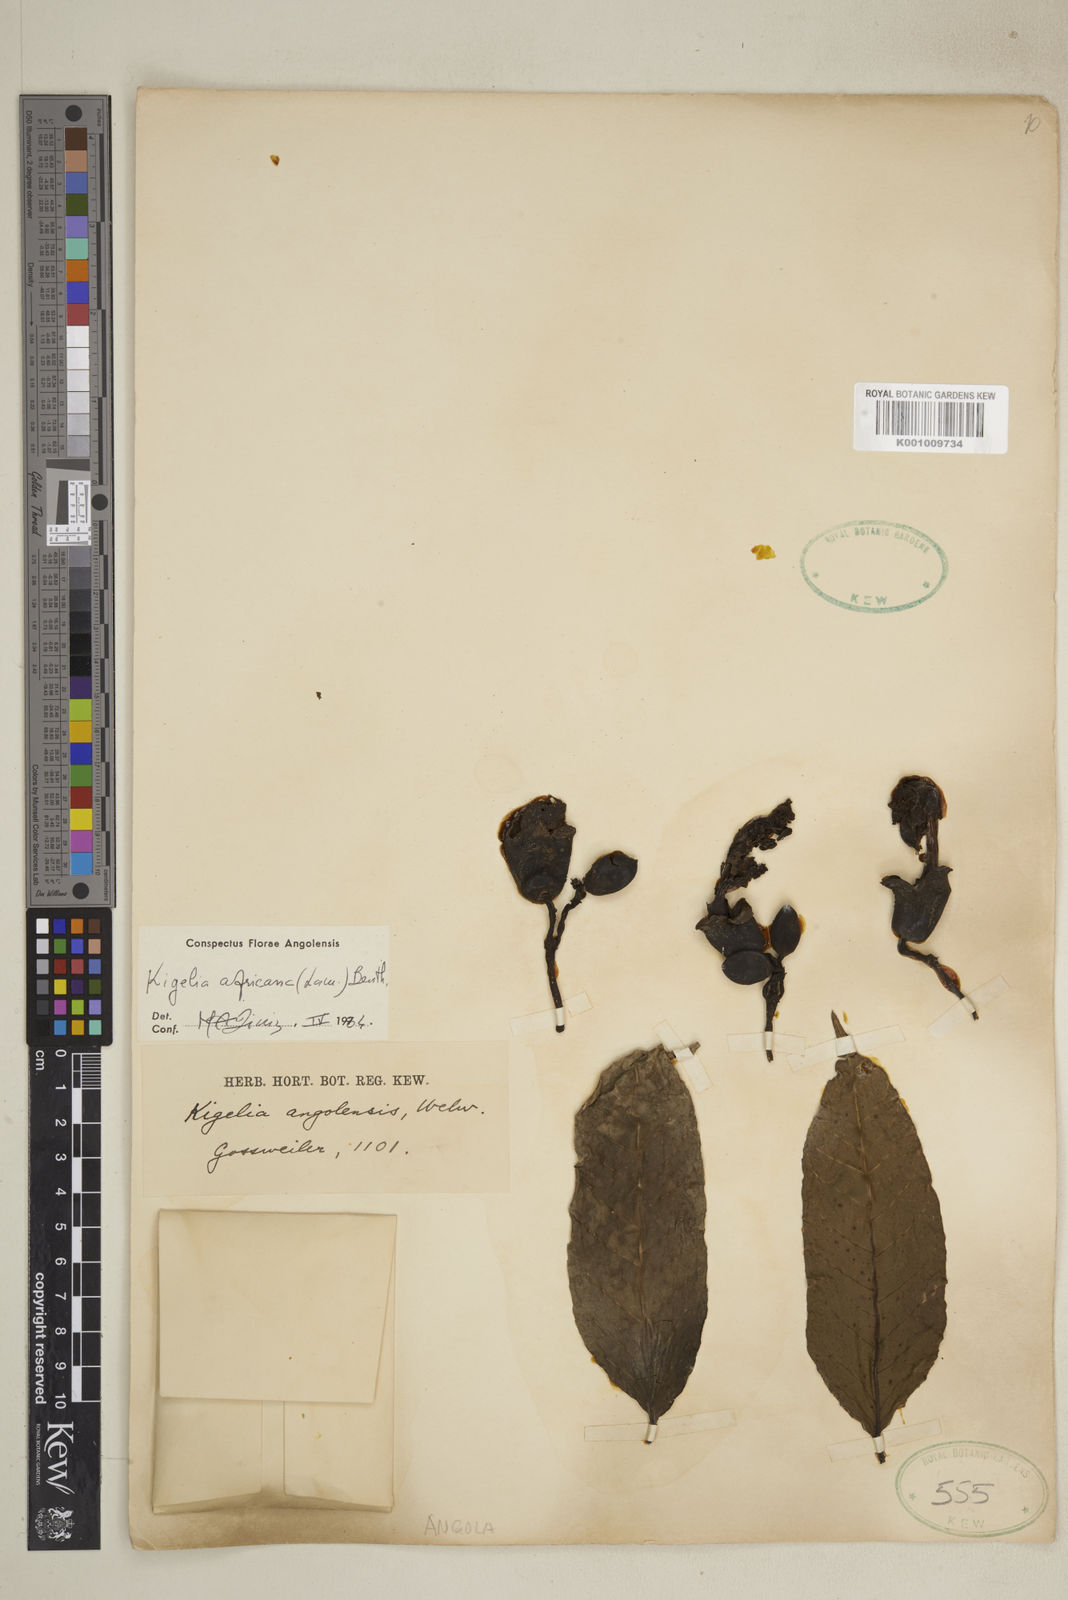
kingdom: Plantae
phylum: Tracheophyta
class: Magnoliopsida
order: Lamiales
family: Bignoniaceae
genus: Kigelia
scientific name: Kigelia africana
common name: Sausage tree
